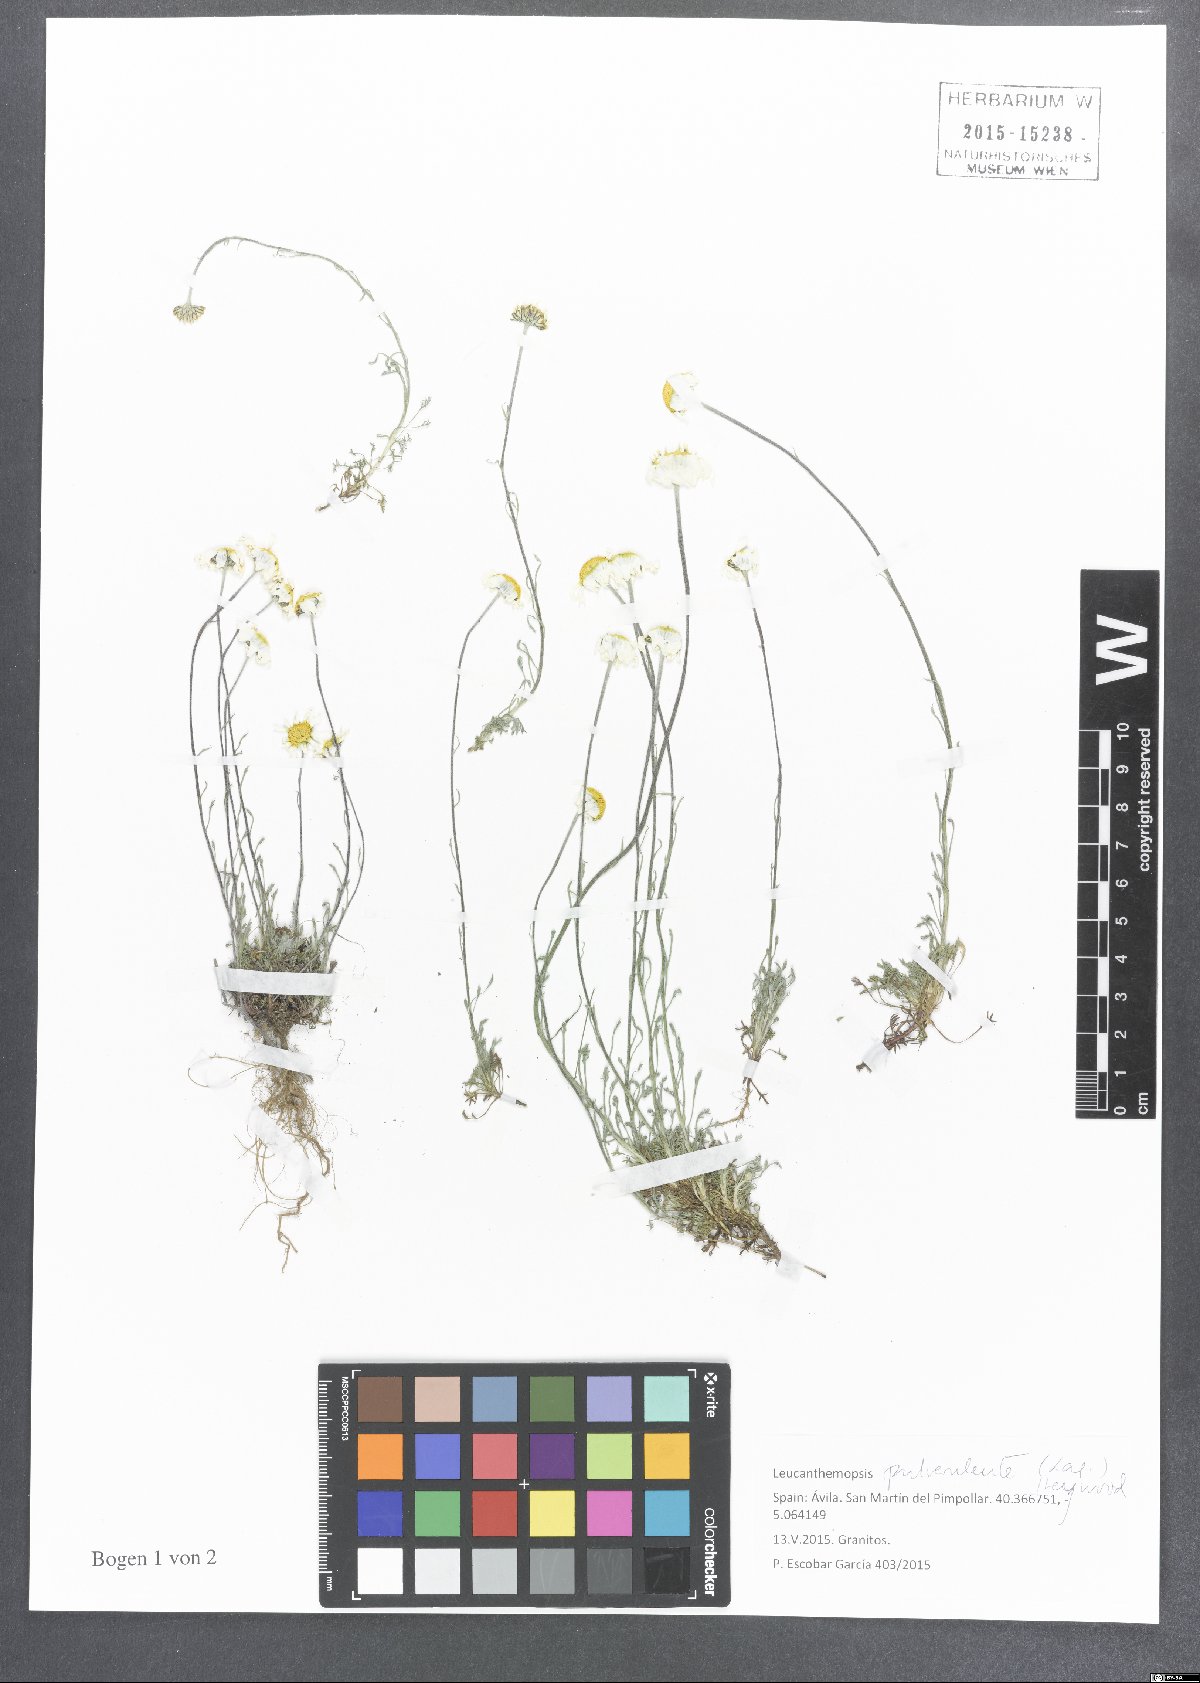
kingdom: Plantae
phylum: Tracheophyta
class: Magnoliopsida
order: Asterales
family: Asteraceae
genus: Leucanthemopsis
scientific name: Leucanthemopsis pulverulenta
